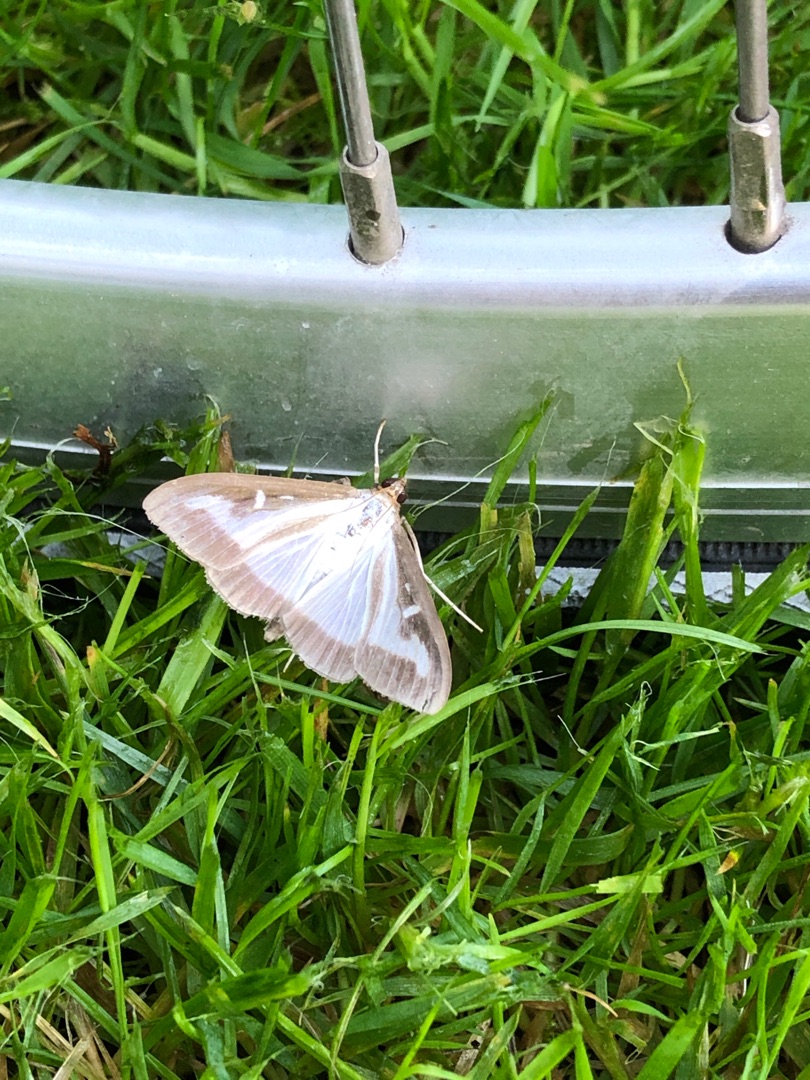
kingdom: Animalia
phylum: Arthropoda
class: Insecta
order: Lepidoptera
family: Crambidae
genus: Cydalima
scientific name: Cydalima perspectalis
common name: Buksbomhalvmøl
